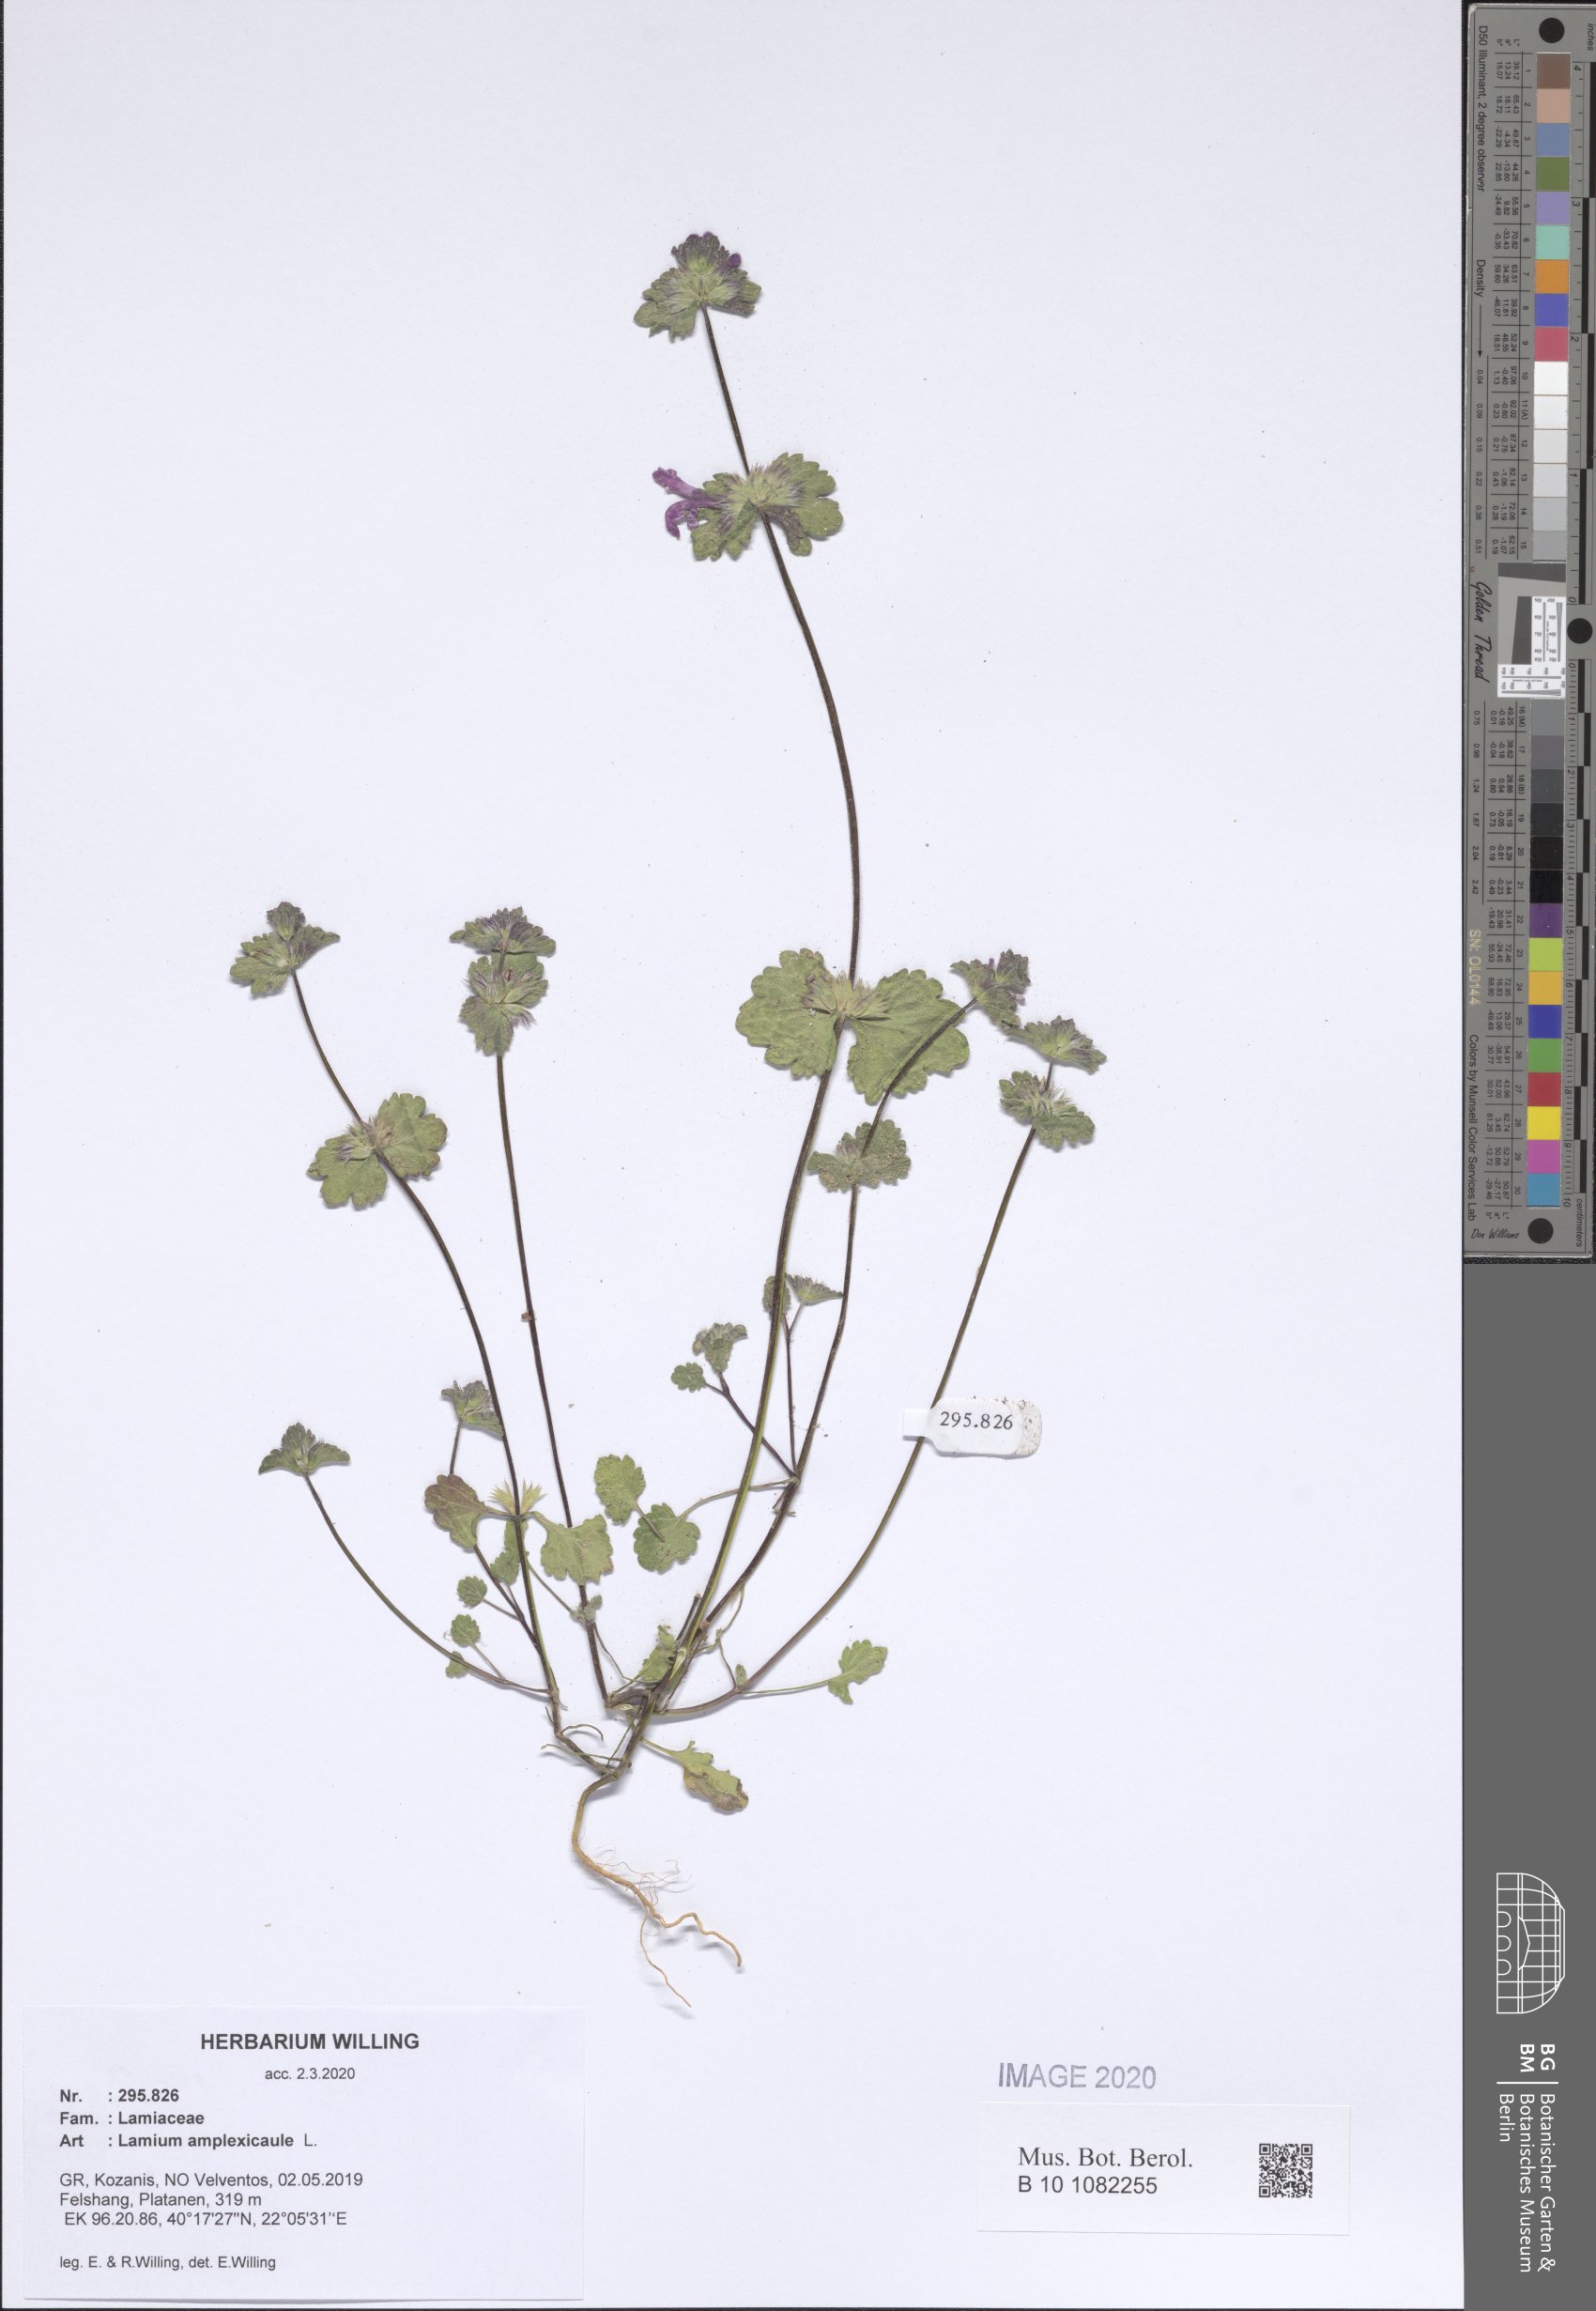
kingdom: Plantae
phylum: Tracheophyta
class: Magnoliopsida
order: Lamiales
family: Lamiaceae
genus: Lamium
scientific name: Lamium amplexicaule
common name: Henbit dead-nettle
